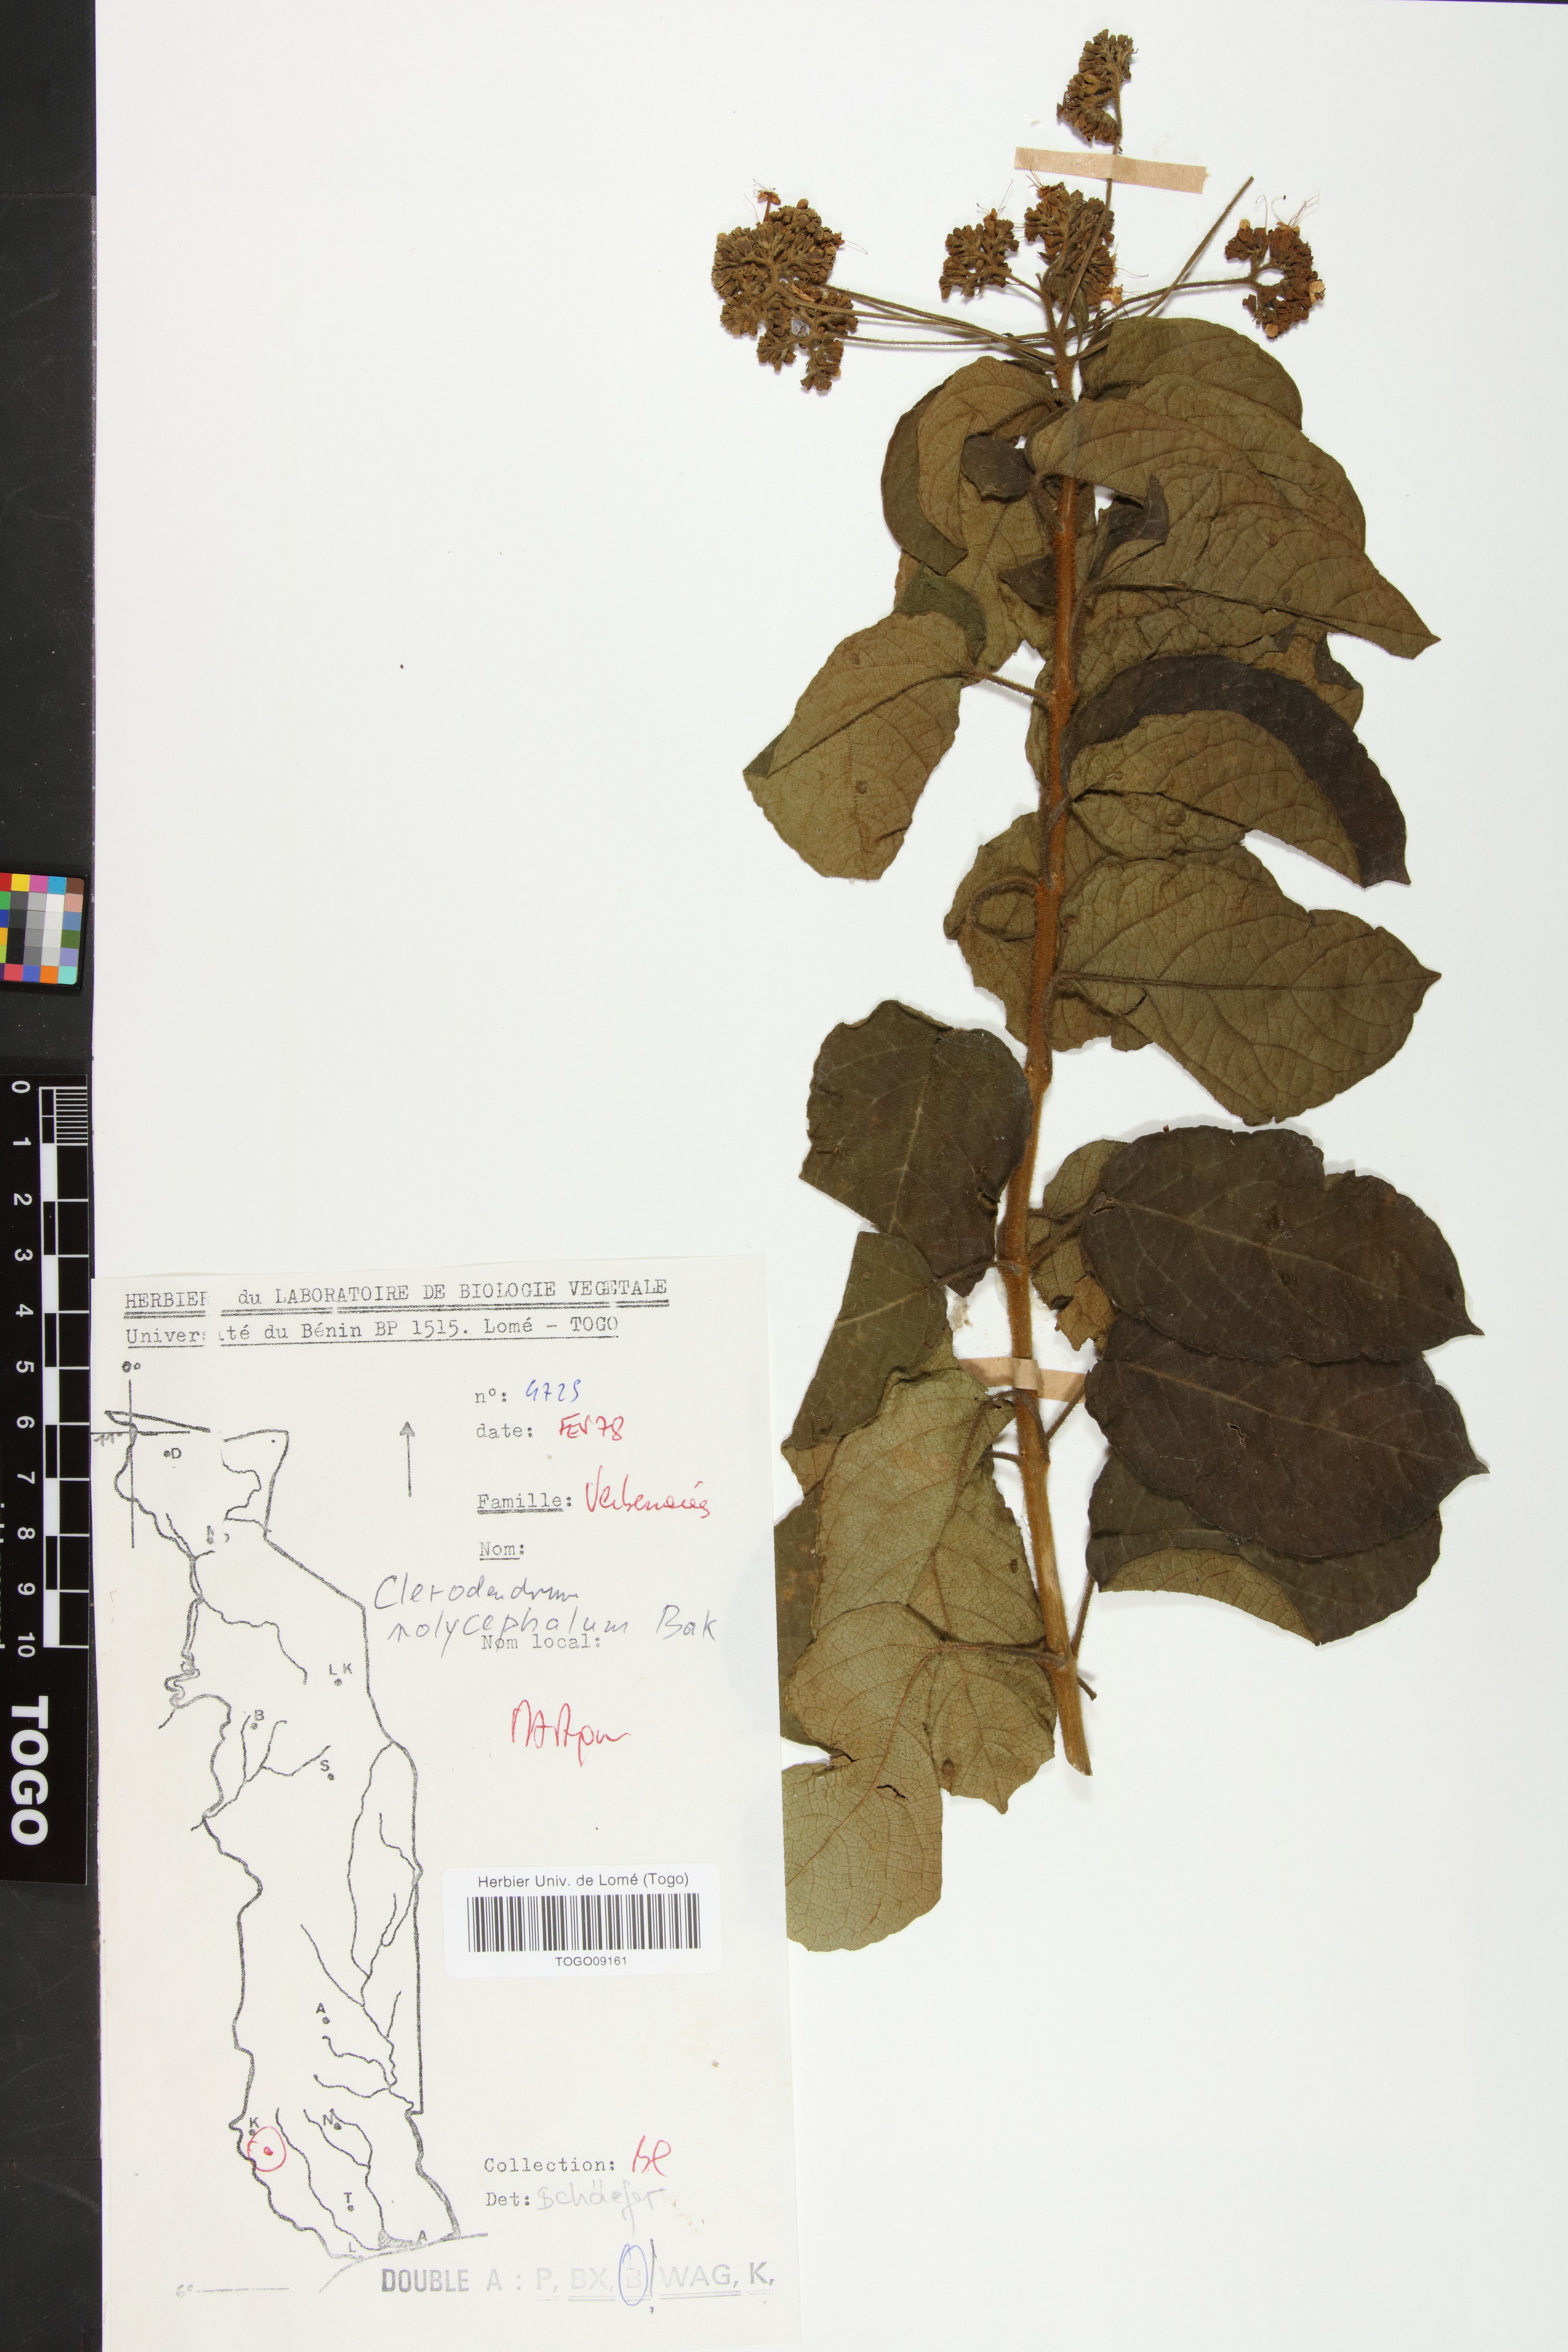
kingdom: Plantae
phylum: Tracheophyta
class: Magnoliopsida
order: Lamiales
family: Lamiaceae
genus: Clerodendrum
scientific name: Clerodendrum polycephalum
